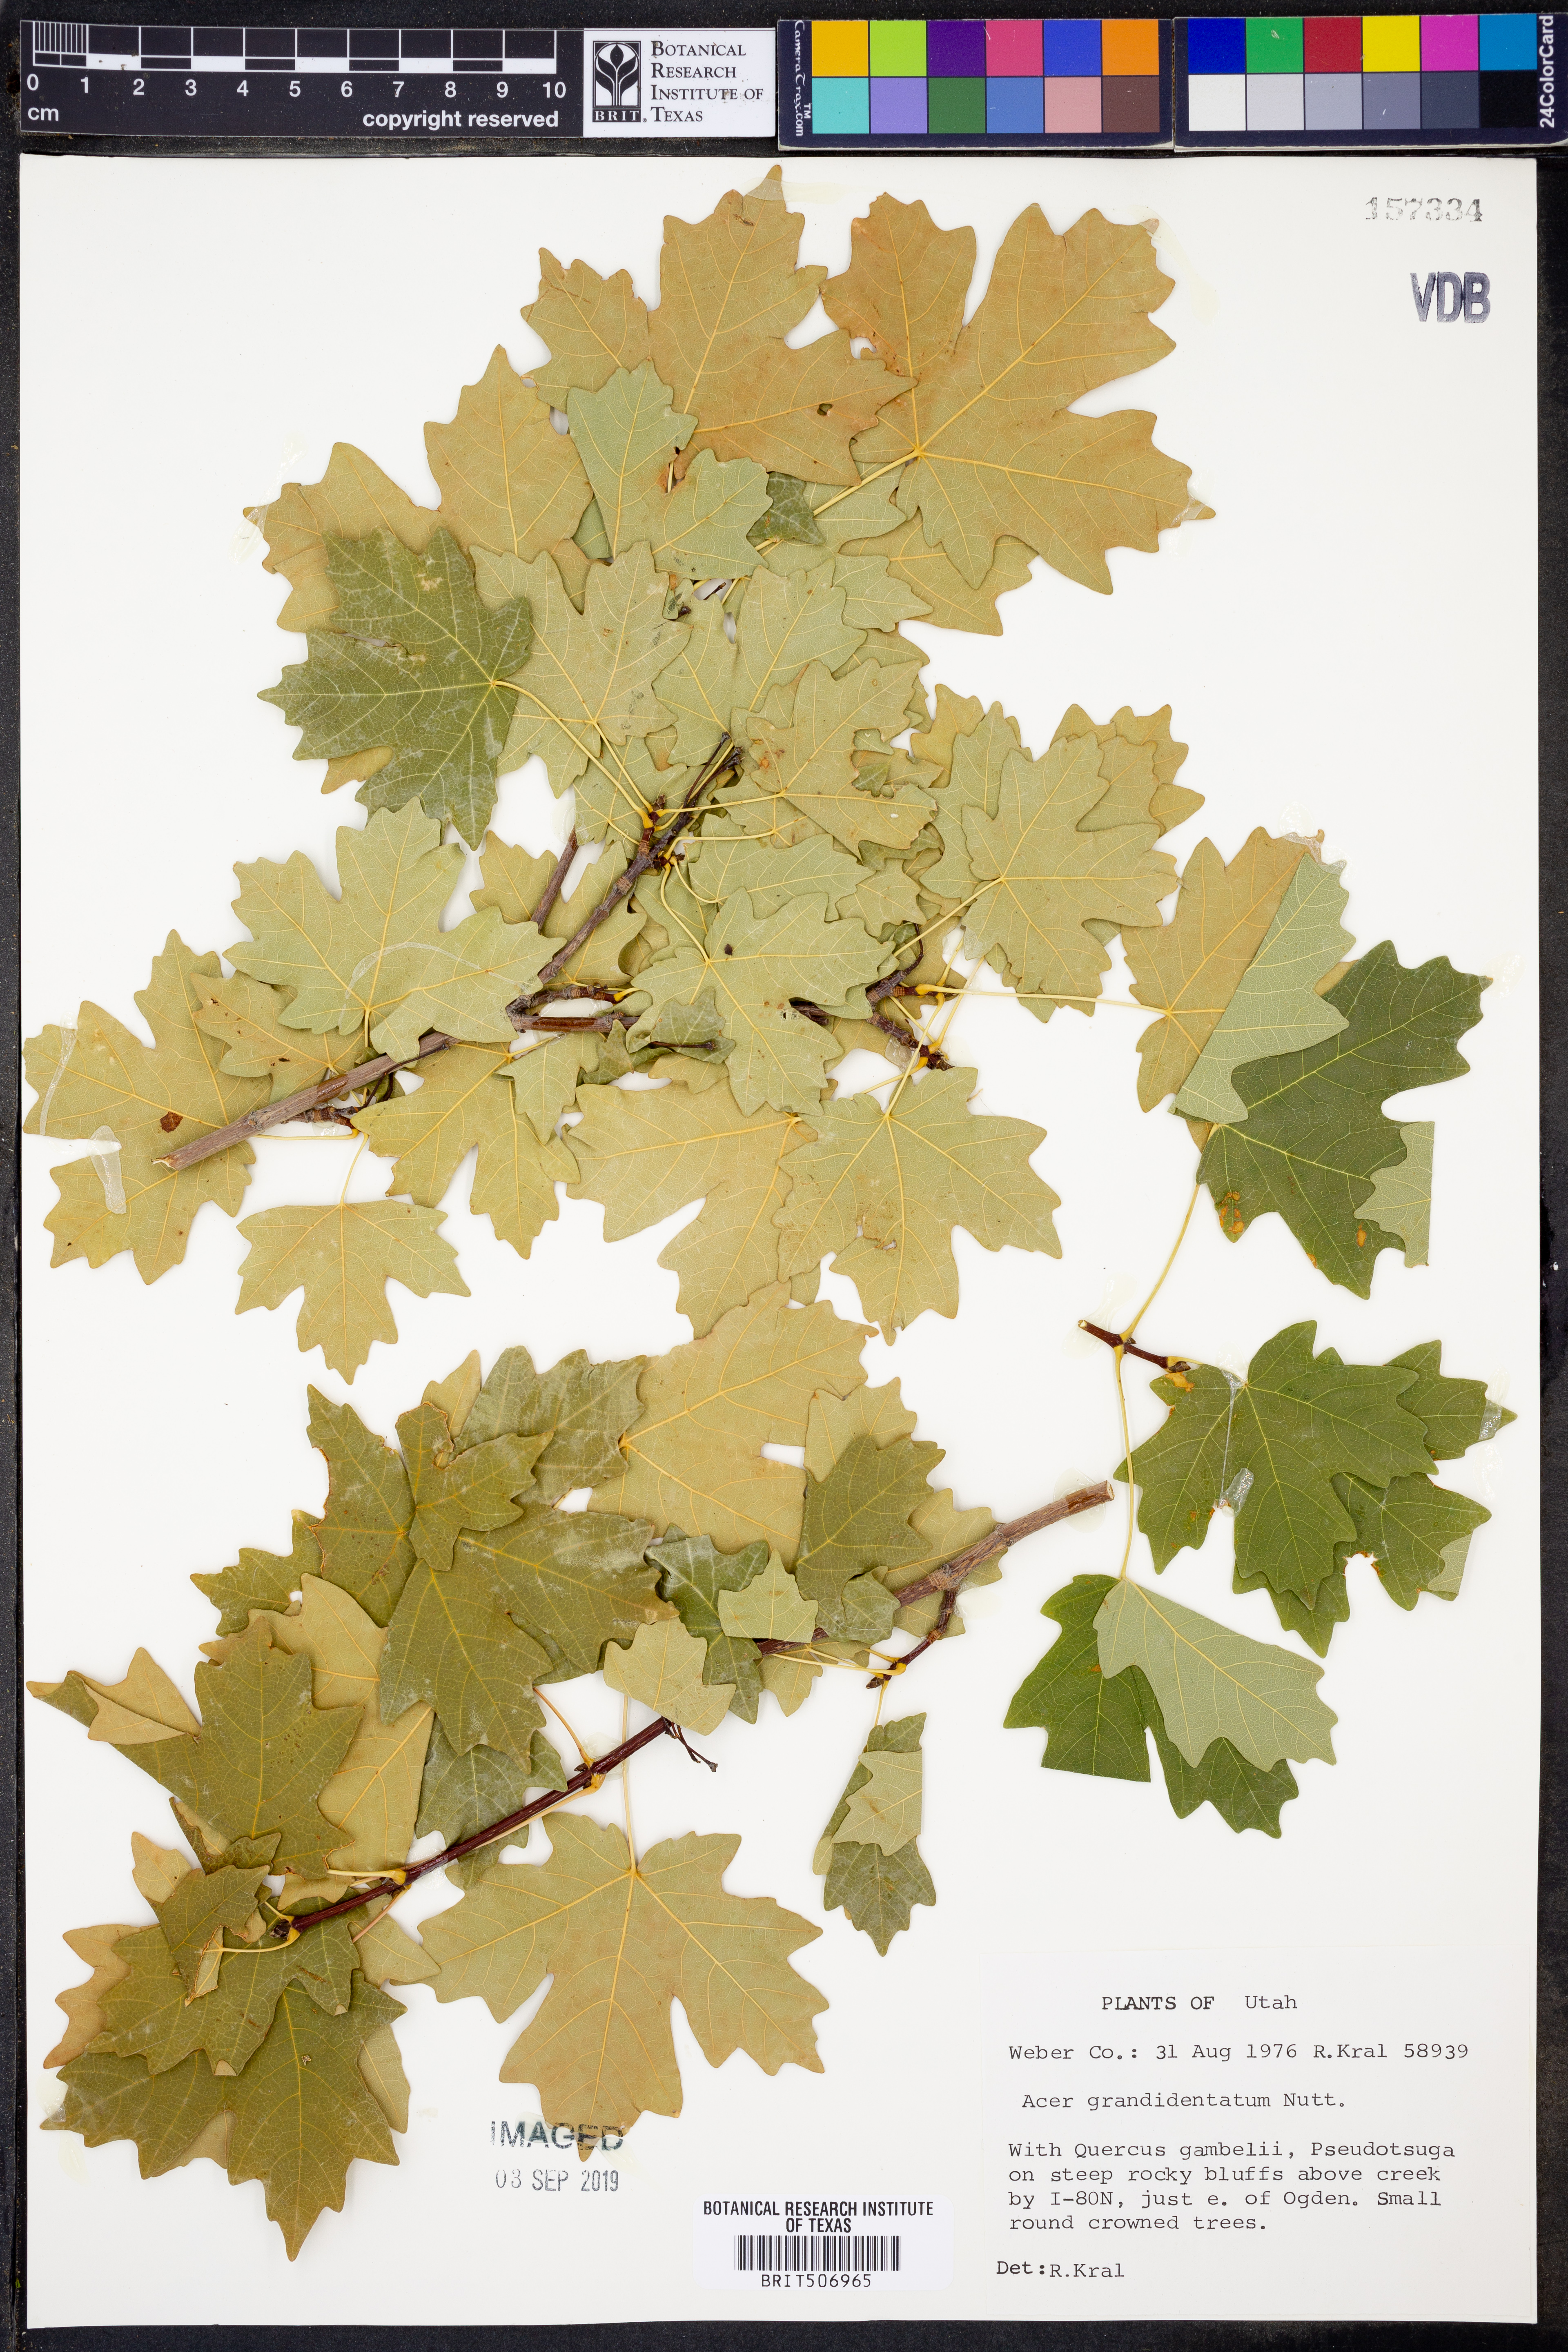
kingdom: Plantae
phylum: Tracheophyta
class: Magnoliopsida
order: Sapindales
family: Sapindaceae
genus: Acer
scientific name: Acer grandidentatum
